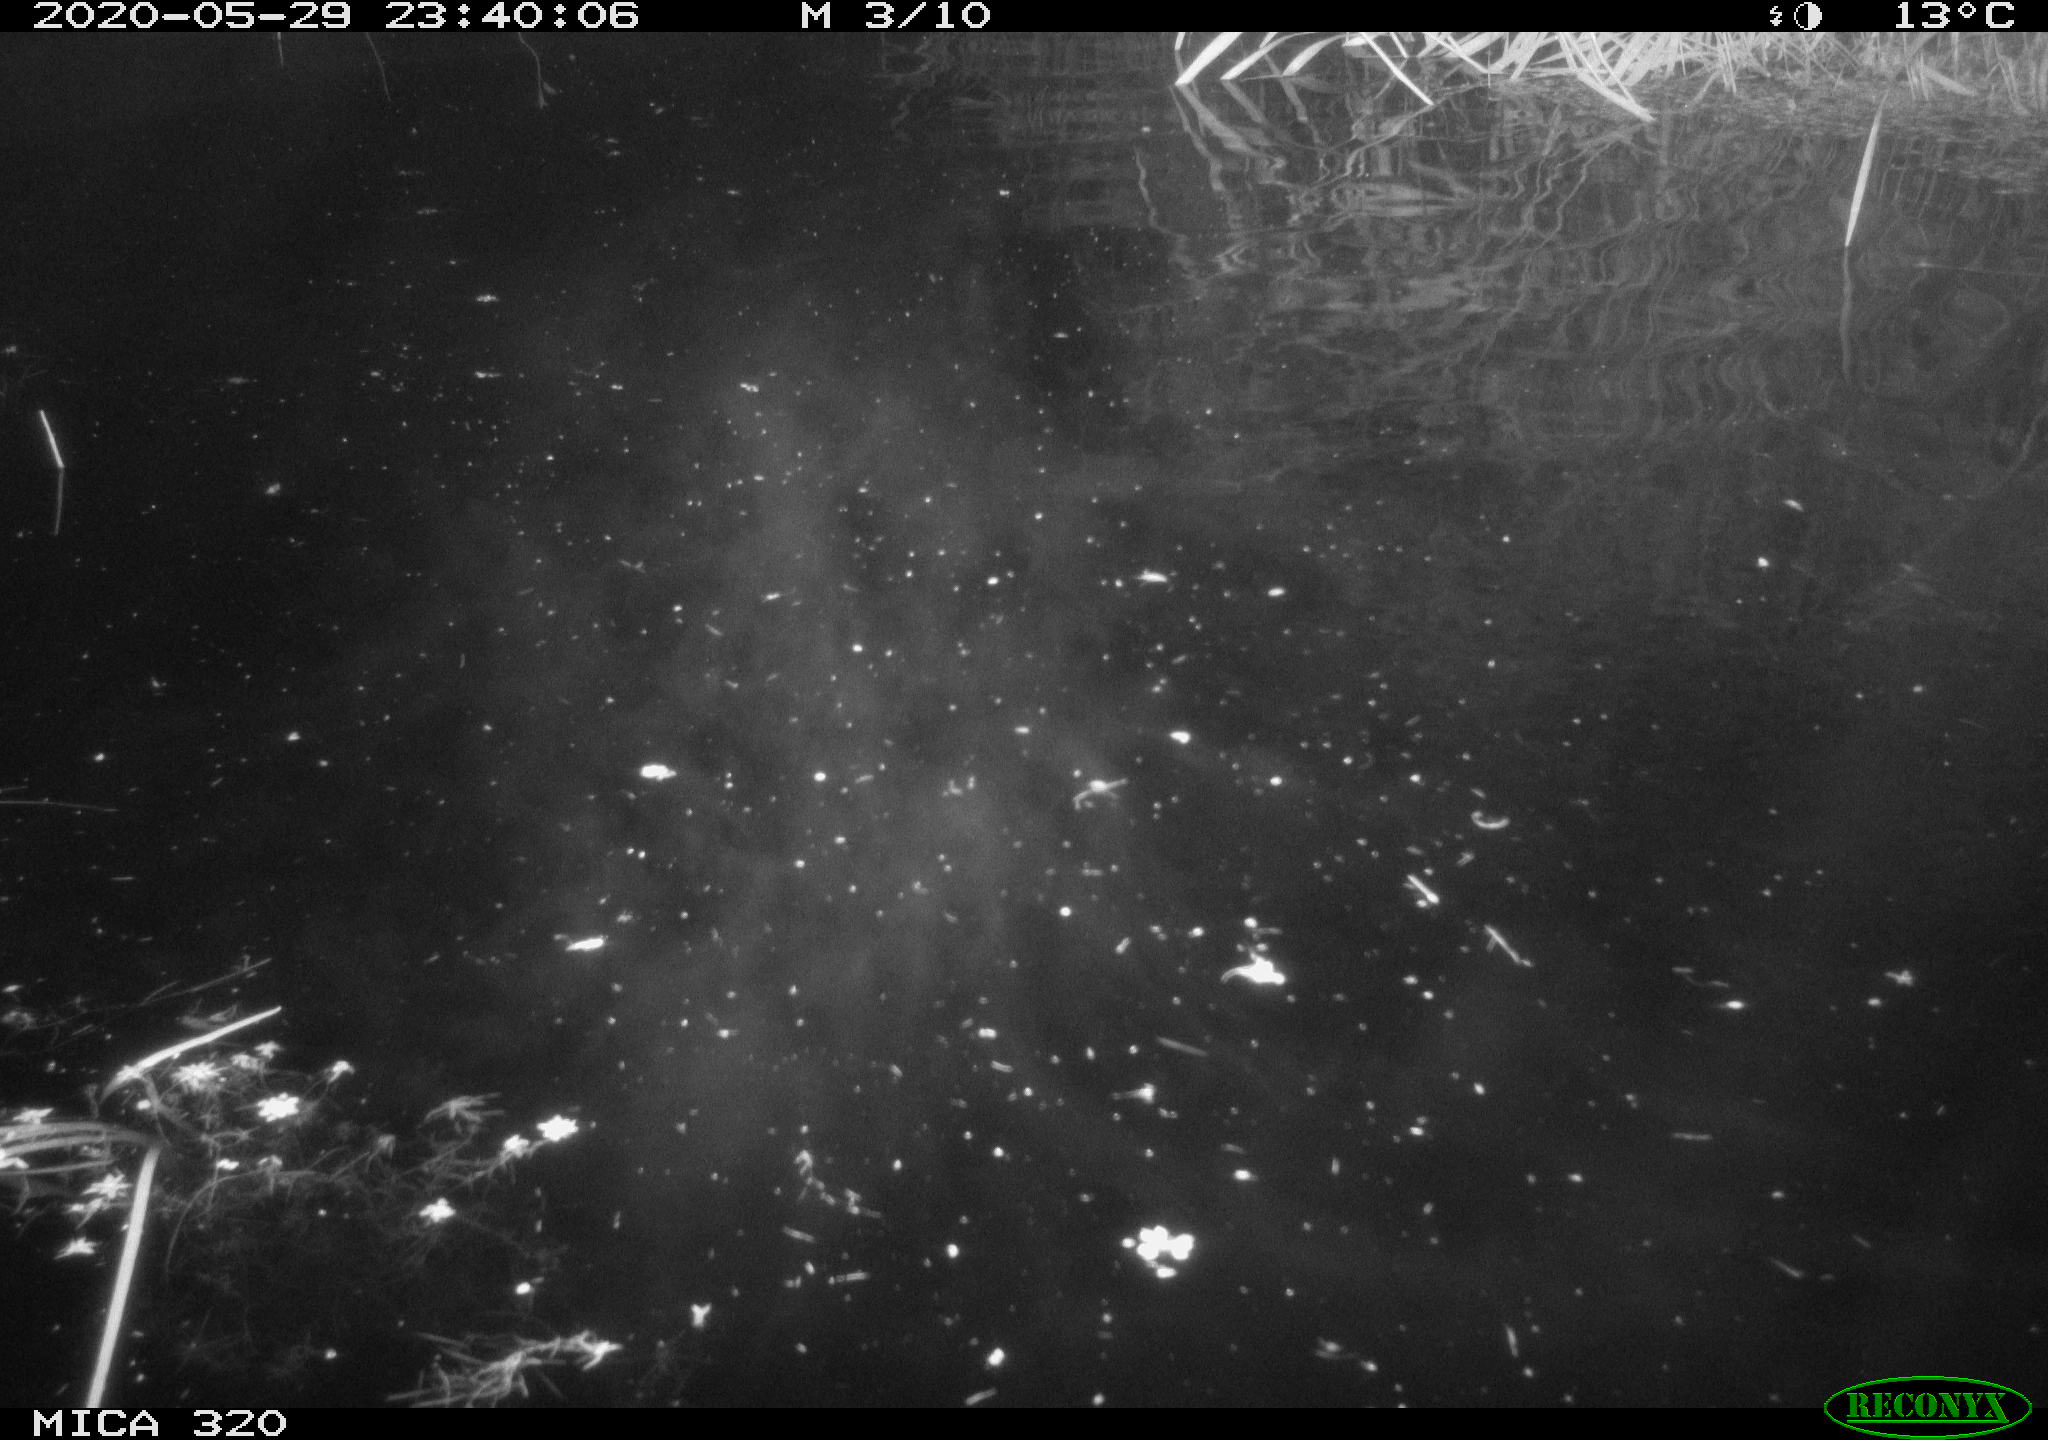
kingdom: Animalia
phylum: Chordata
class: Aves
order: Anseriformes
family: Anatidae
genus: Anas
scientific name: Anas platyrhynchos
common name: Mallard
